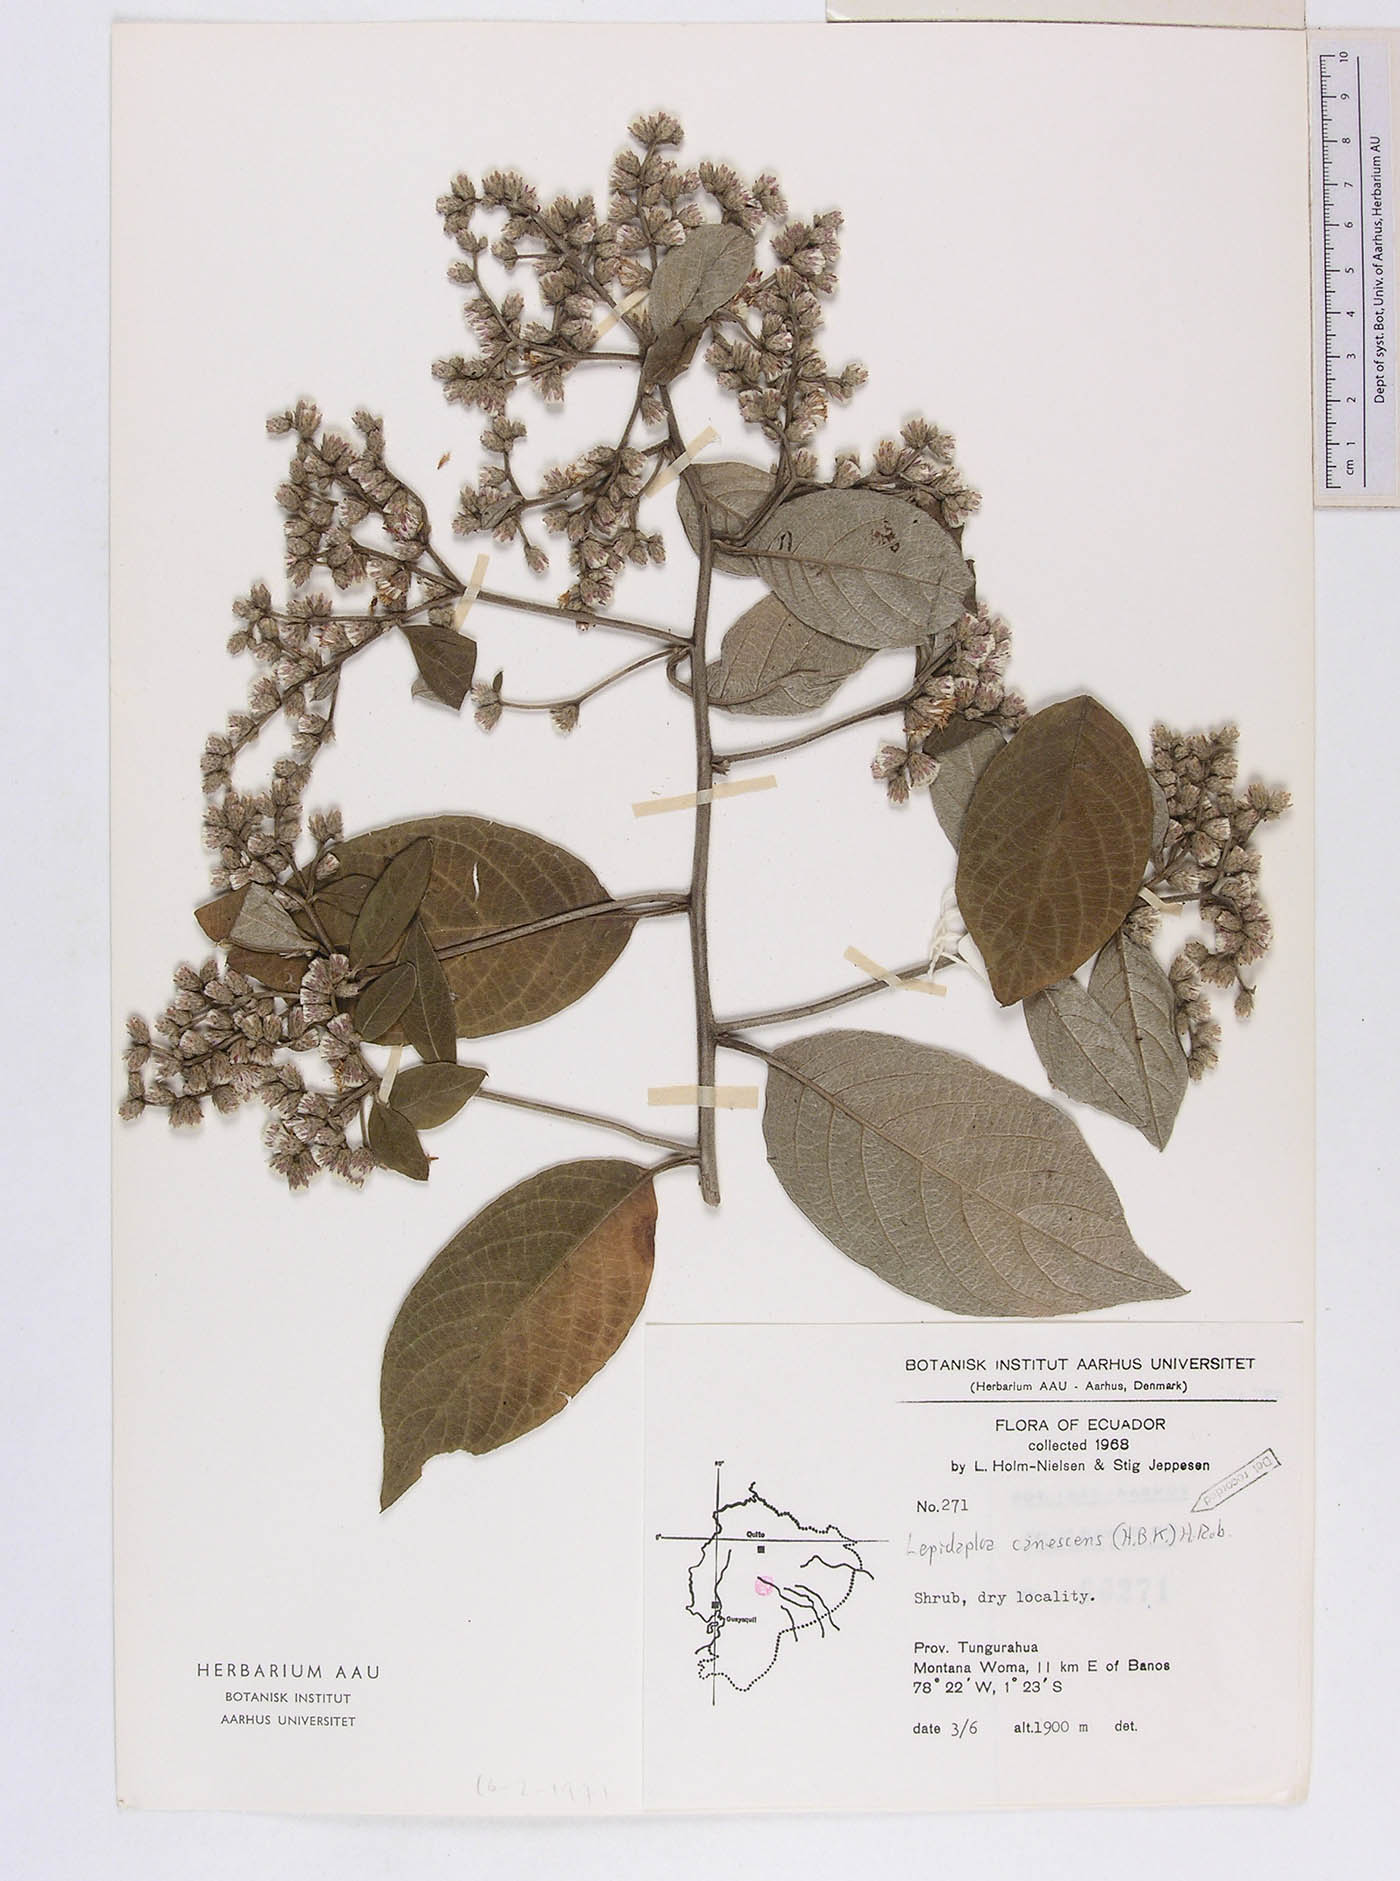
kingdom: Plantae
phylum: Tracheophyta
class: Magnoliopsida
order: Asterales
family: Asteraceae
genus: Lepidaploa
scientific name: Lepidaploa canescens
